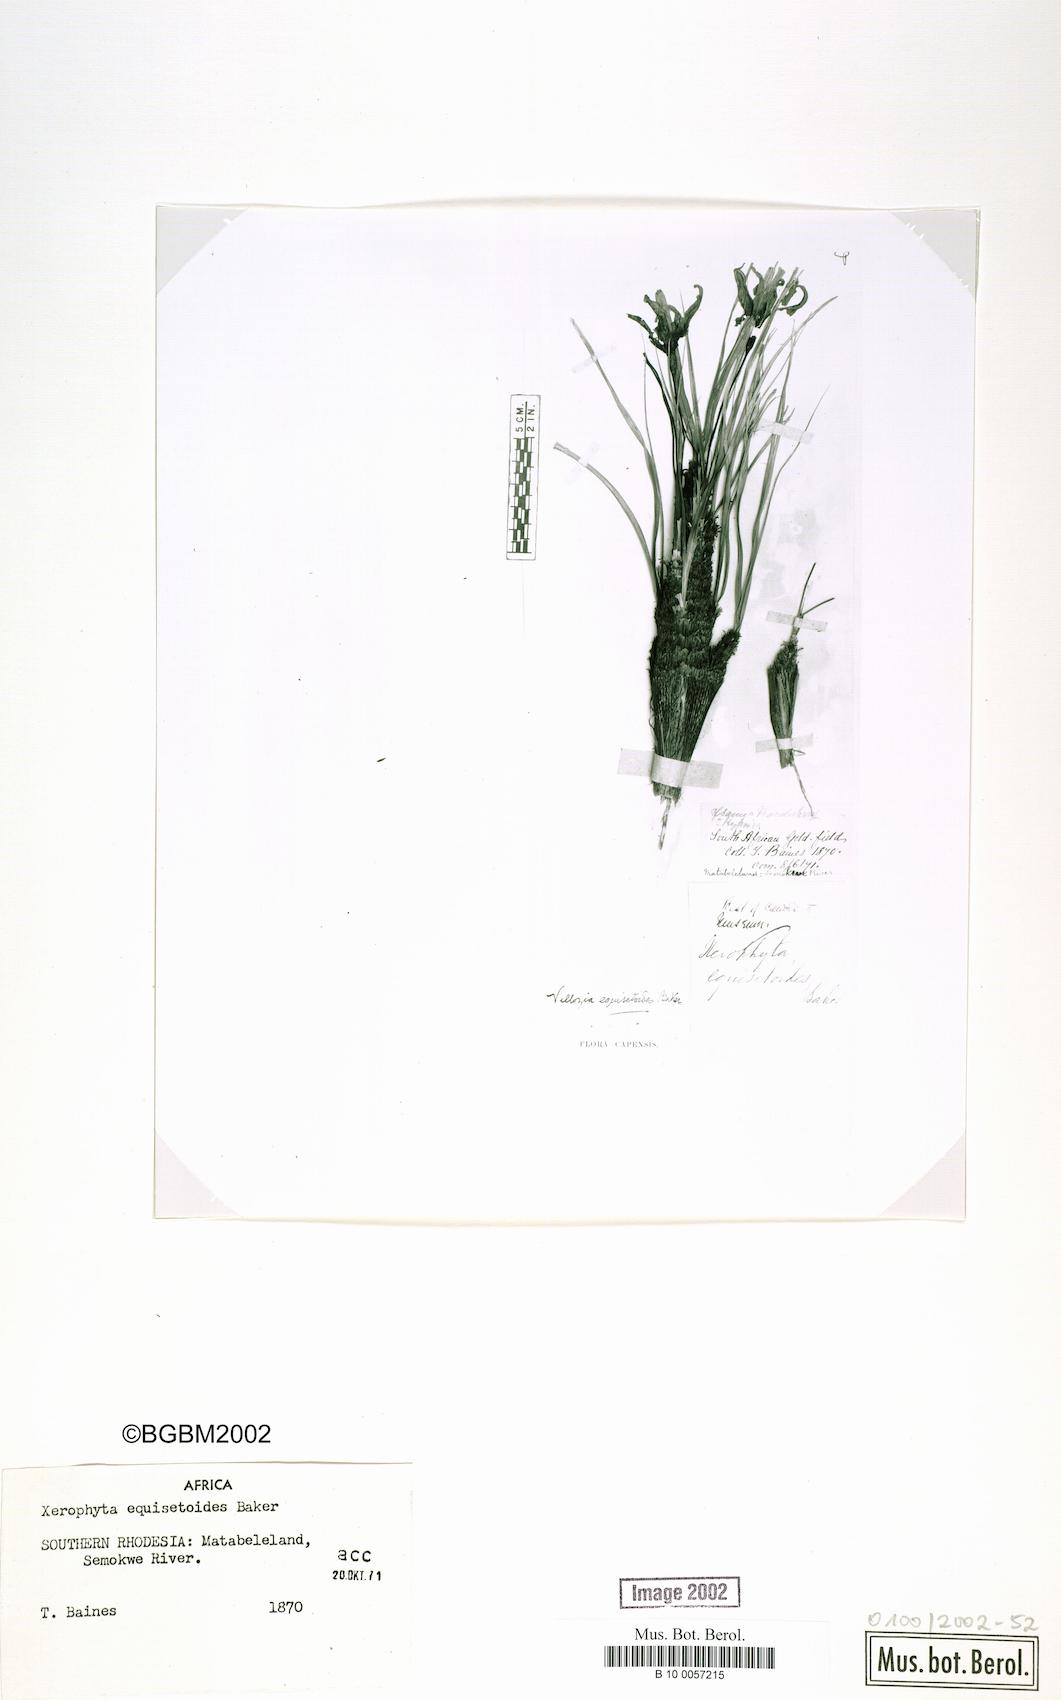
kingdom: Plantae
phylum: Tracheophyta
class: Liliopsida
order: Pandanales
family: Velloziaceae
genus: Xerophyta
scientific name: Xerophyta equisetoides
